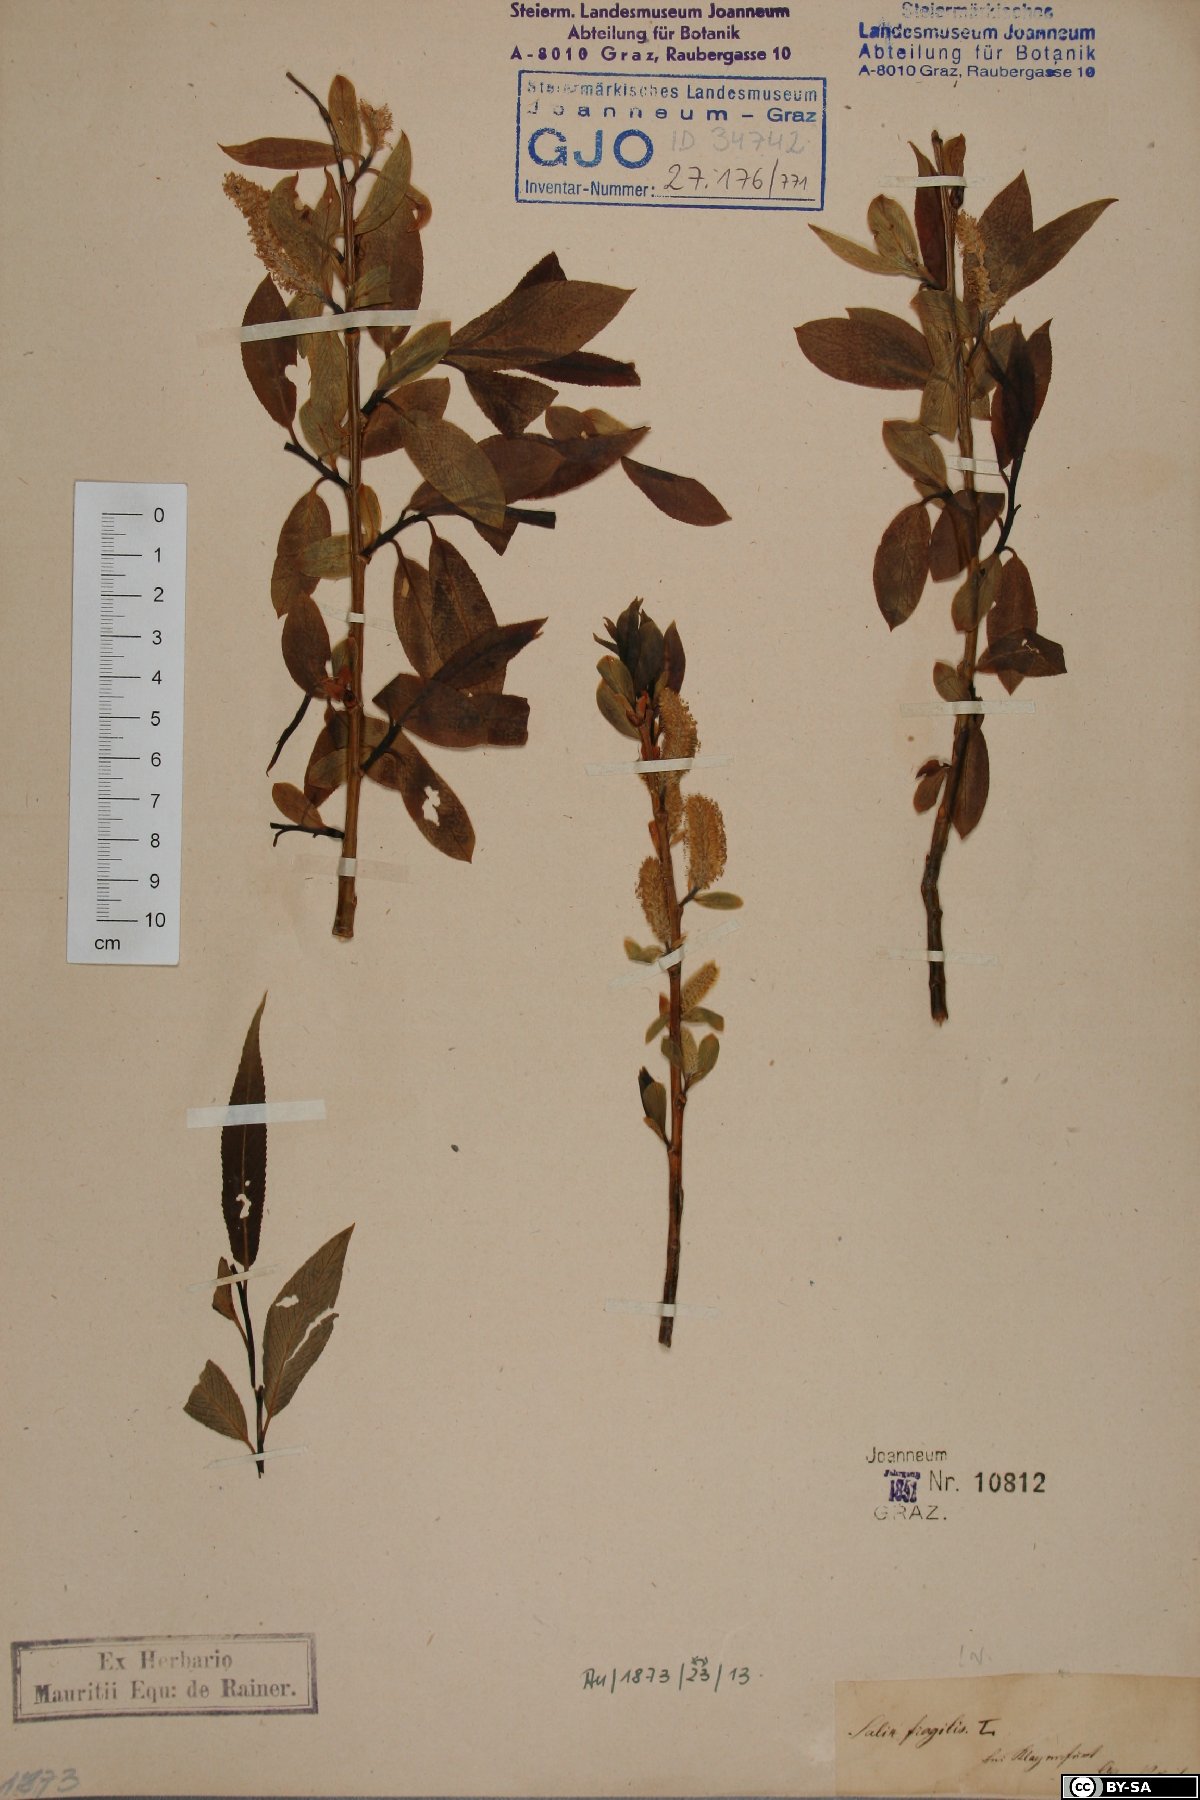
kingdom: Plantae
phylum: Tracheophyta
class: Magnoliopsida
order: Malpighiales
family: Salicaceae
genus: Salix
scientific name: Salix fragilis
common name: Crack willow
